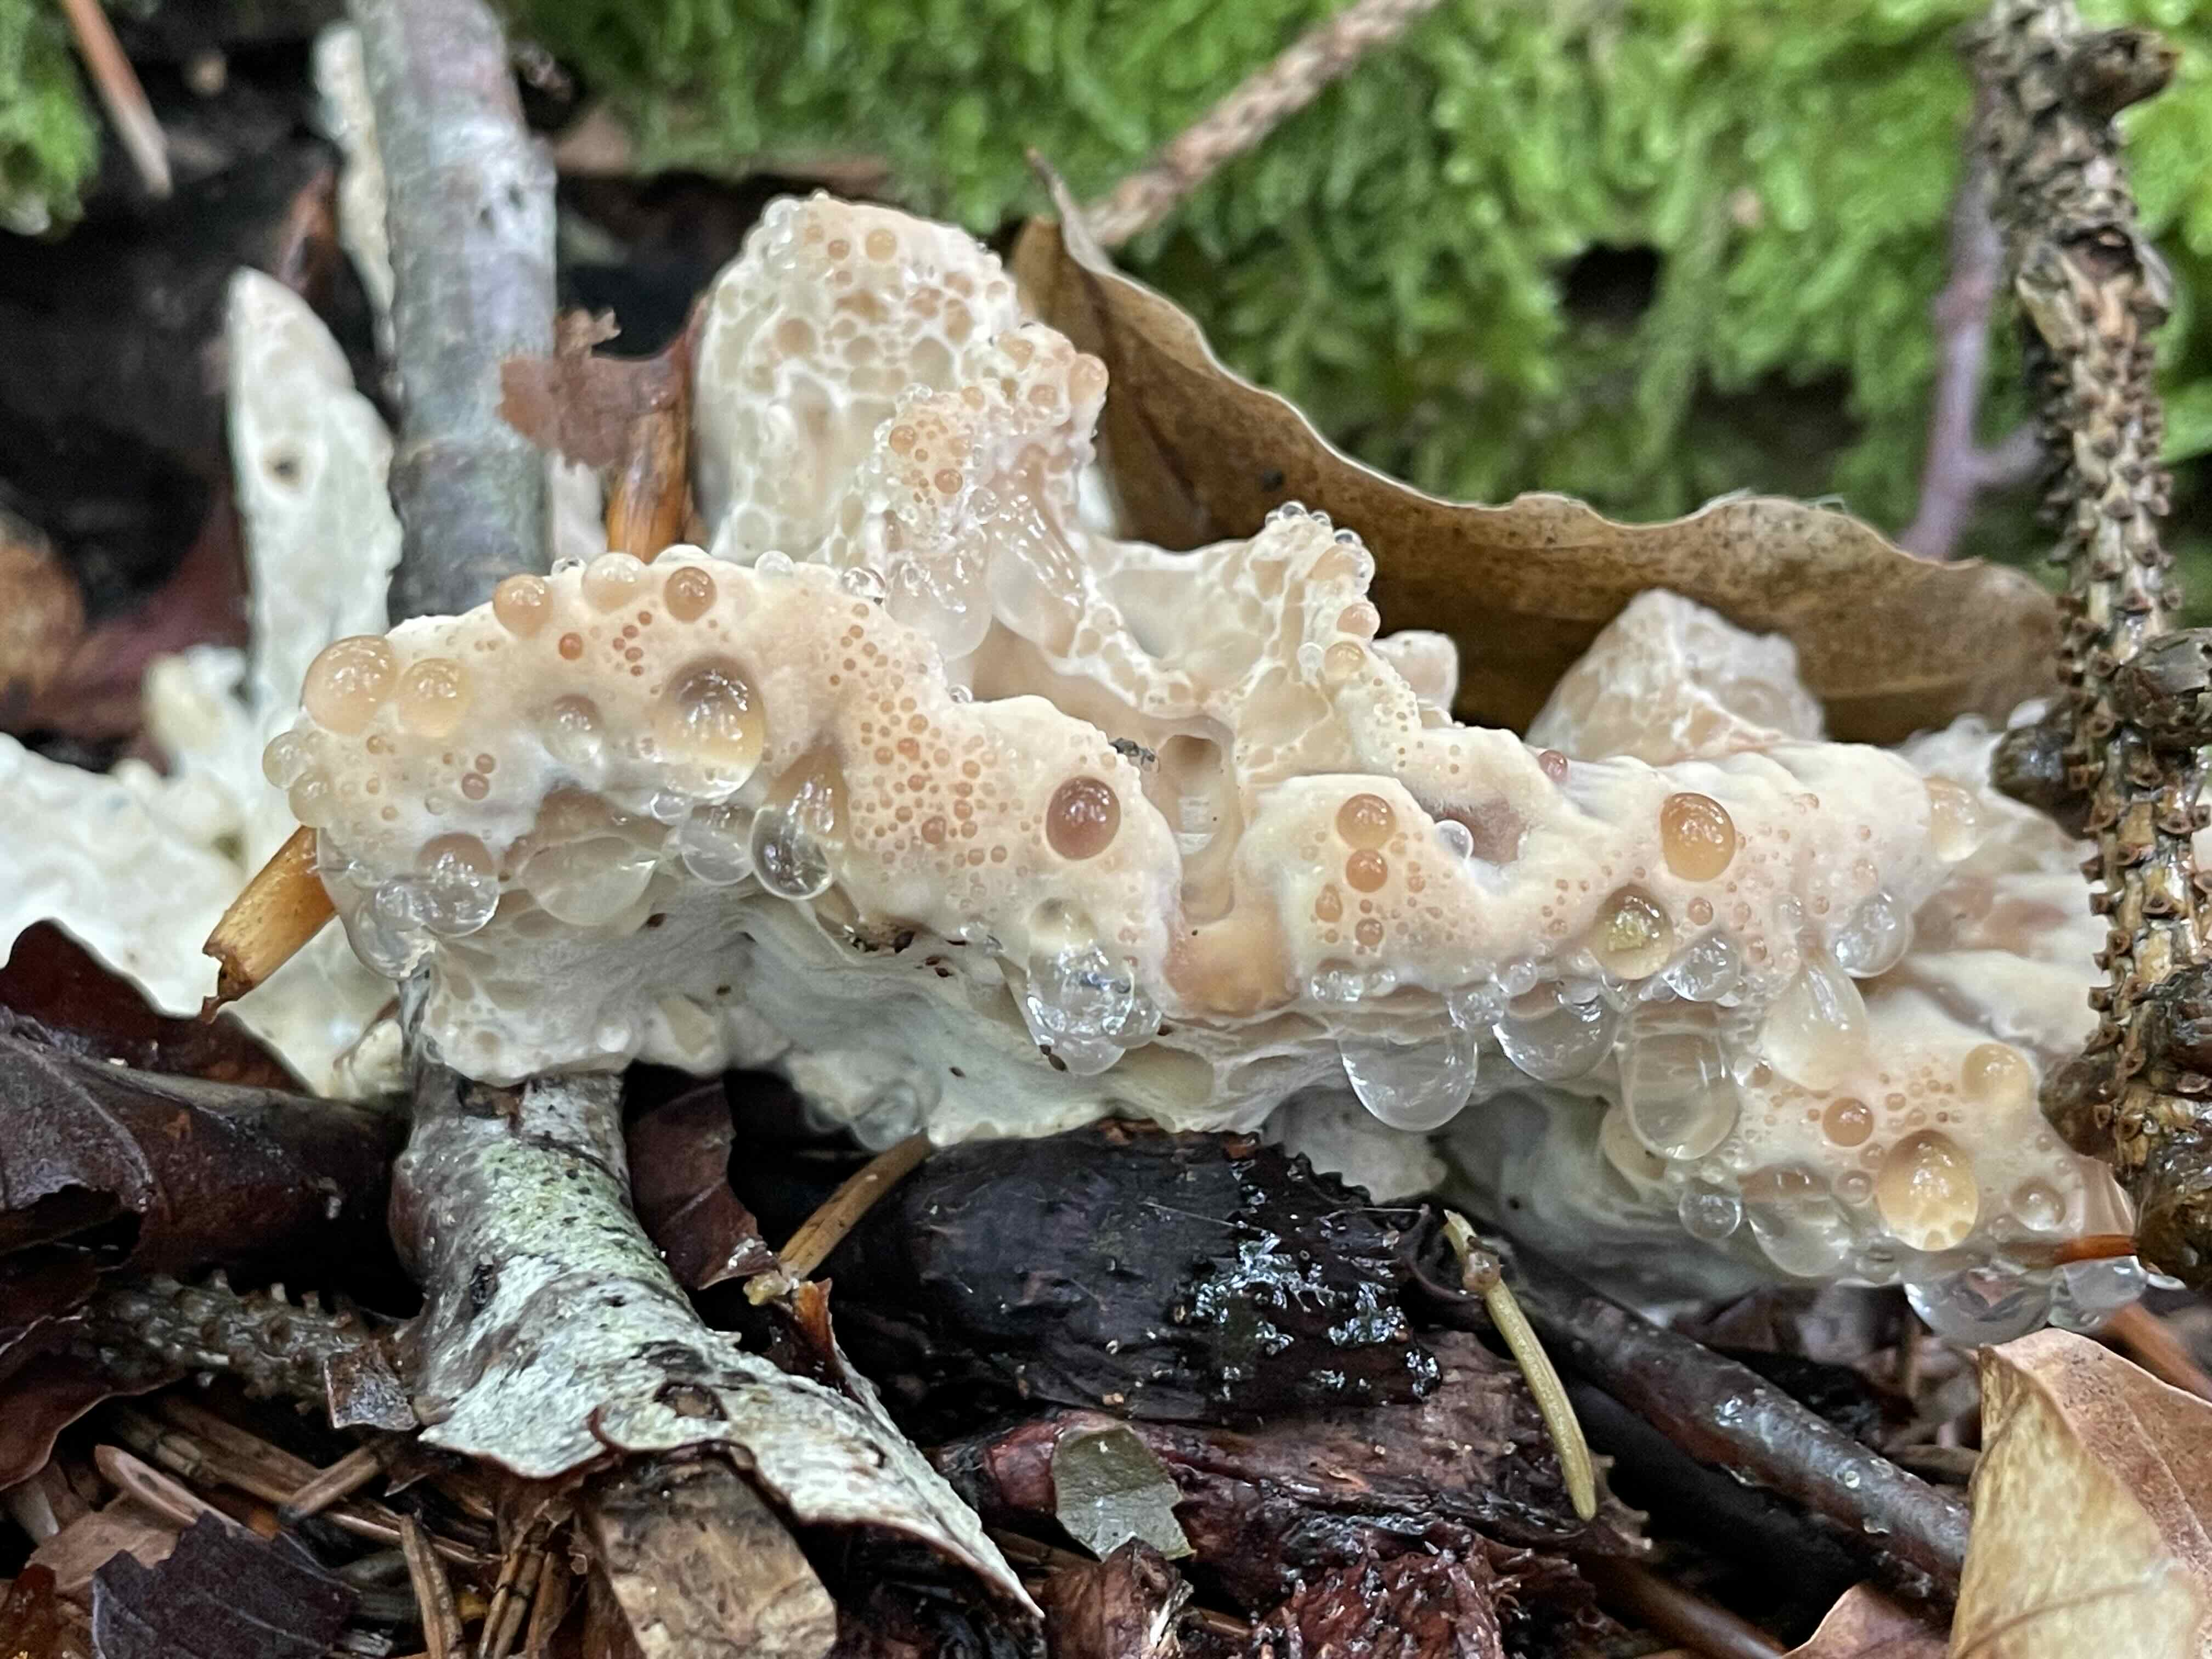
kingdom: Fungi
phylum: Basidiomycota
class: Agaricomycetes
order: Polyporales
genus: Calcipostia
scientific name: Calcipostia guttulata
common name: dråbe-kødporesvamp
